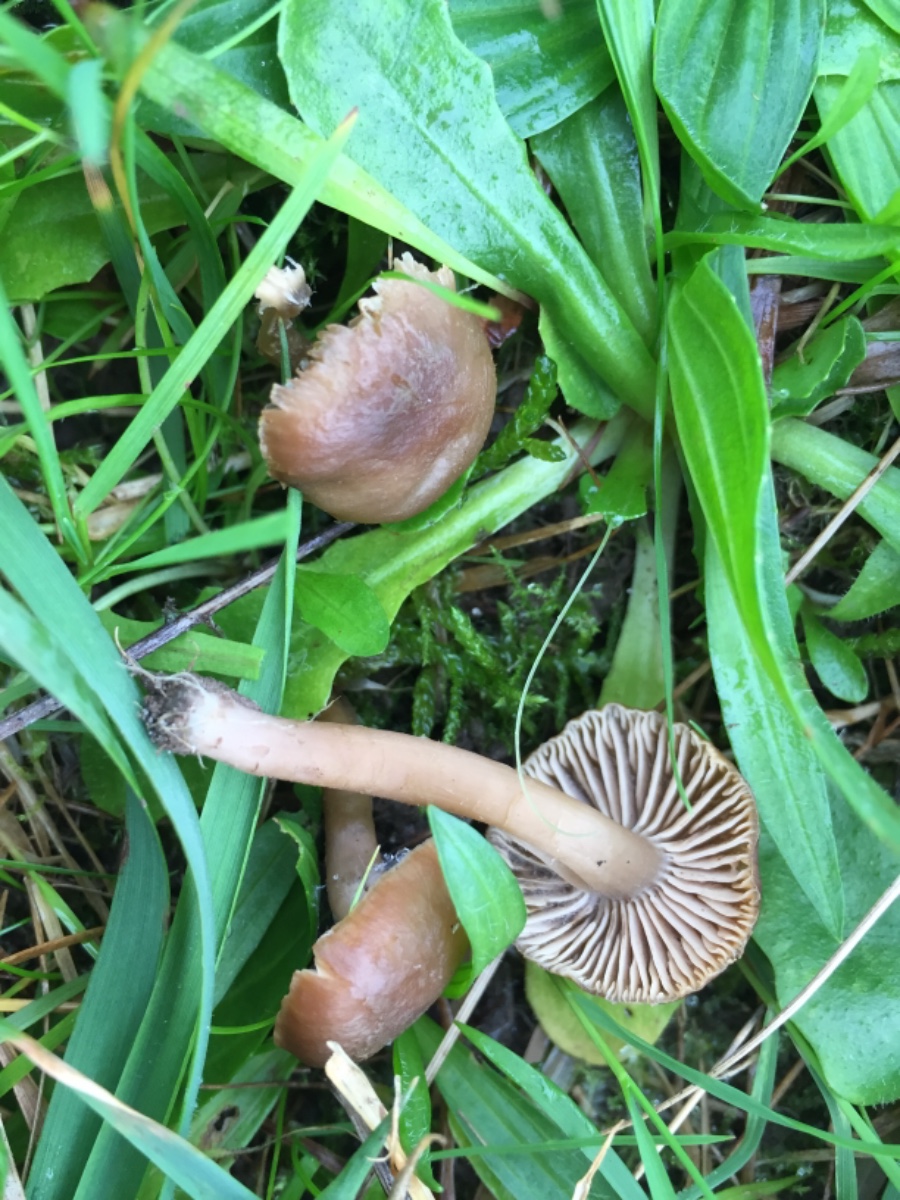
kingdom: Fungi
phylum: Basidiomycota
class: Agaricomycetes
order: Agaricales
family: Clavariaceae
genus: Camarophyllopsis
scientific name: Camarophyllopsis schulzeri
